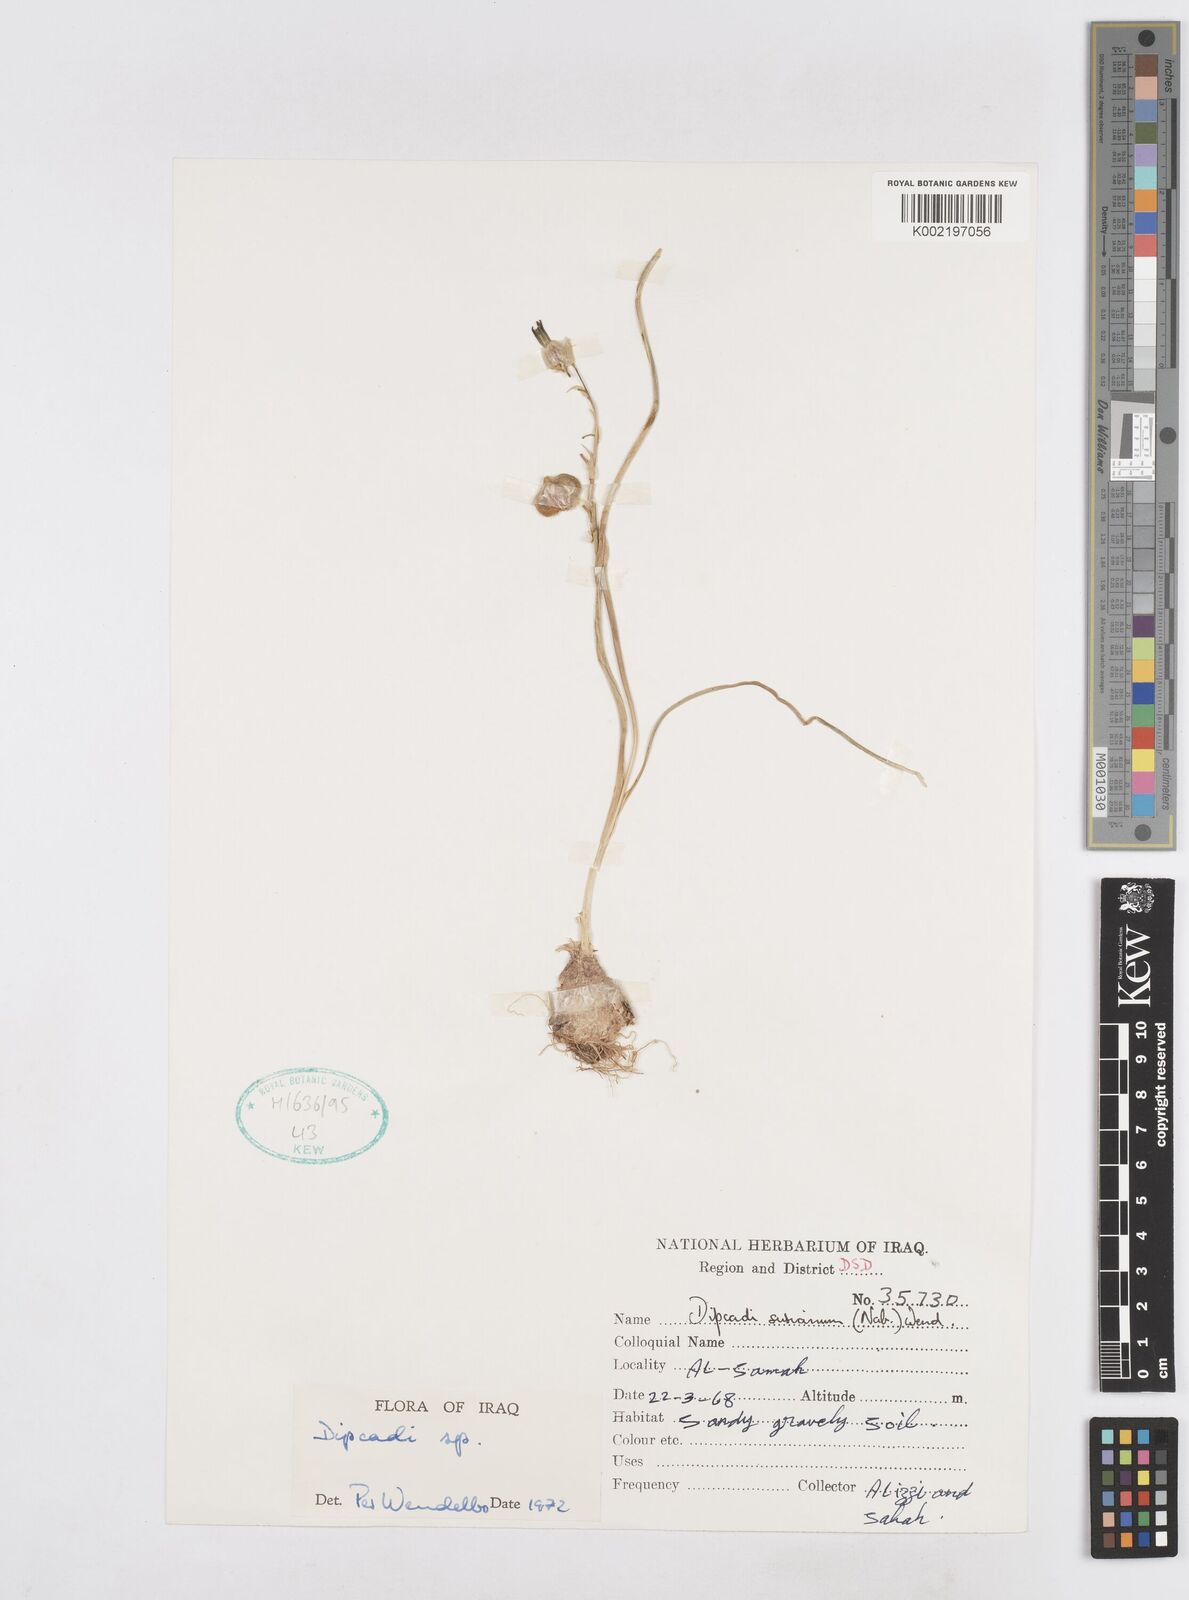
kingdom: Plantae
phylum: Tracheophyta
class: Liliopsida
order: Asparagales
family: Asparagaceae
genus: Dipcadi
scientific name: Dipcadi susianum
